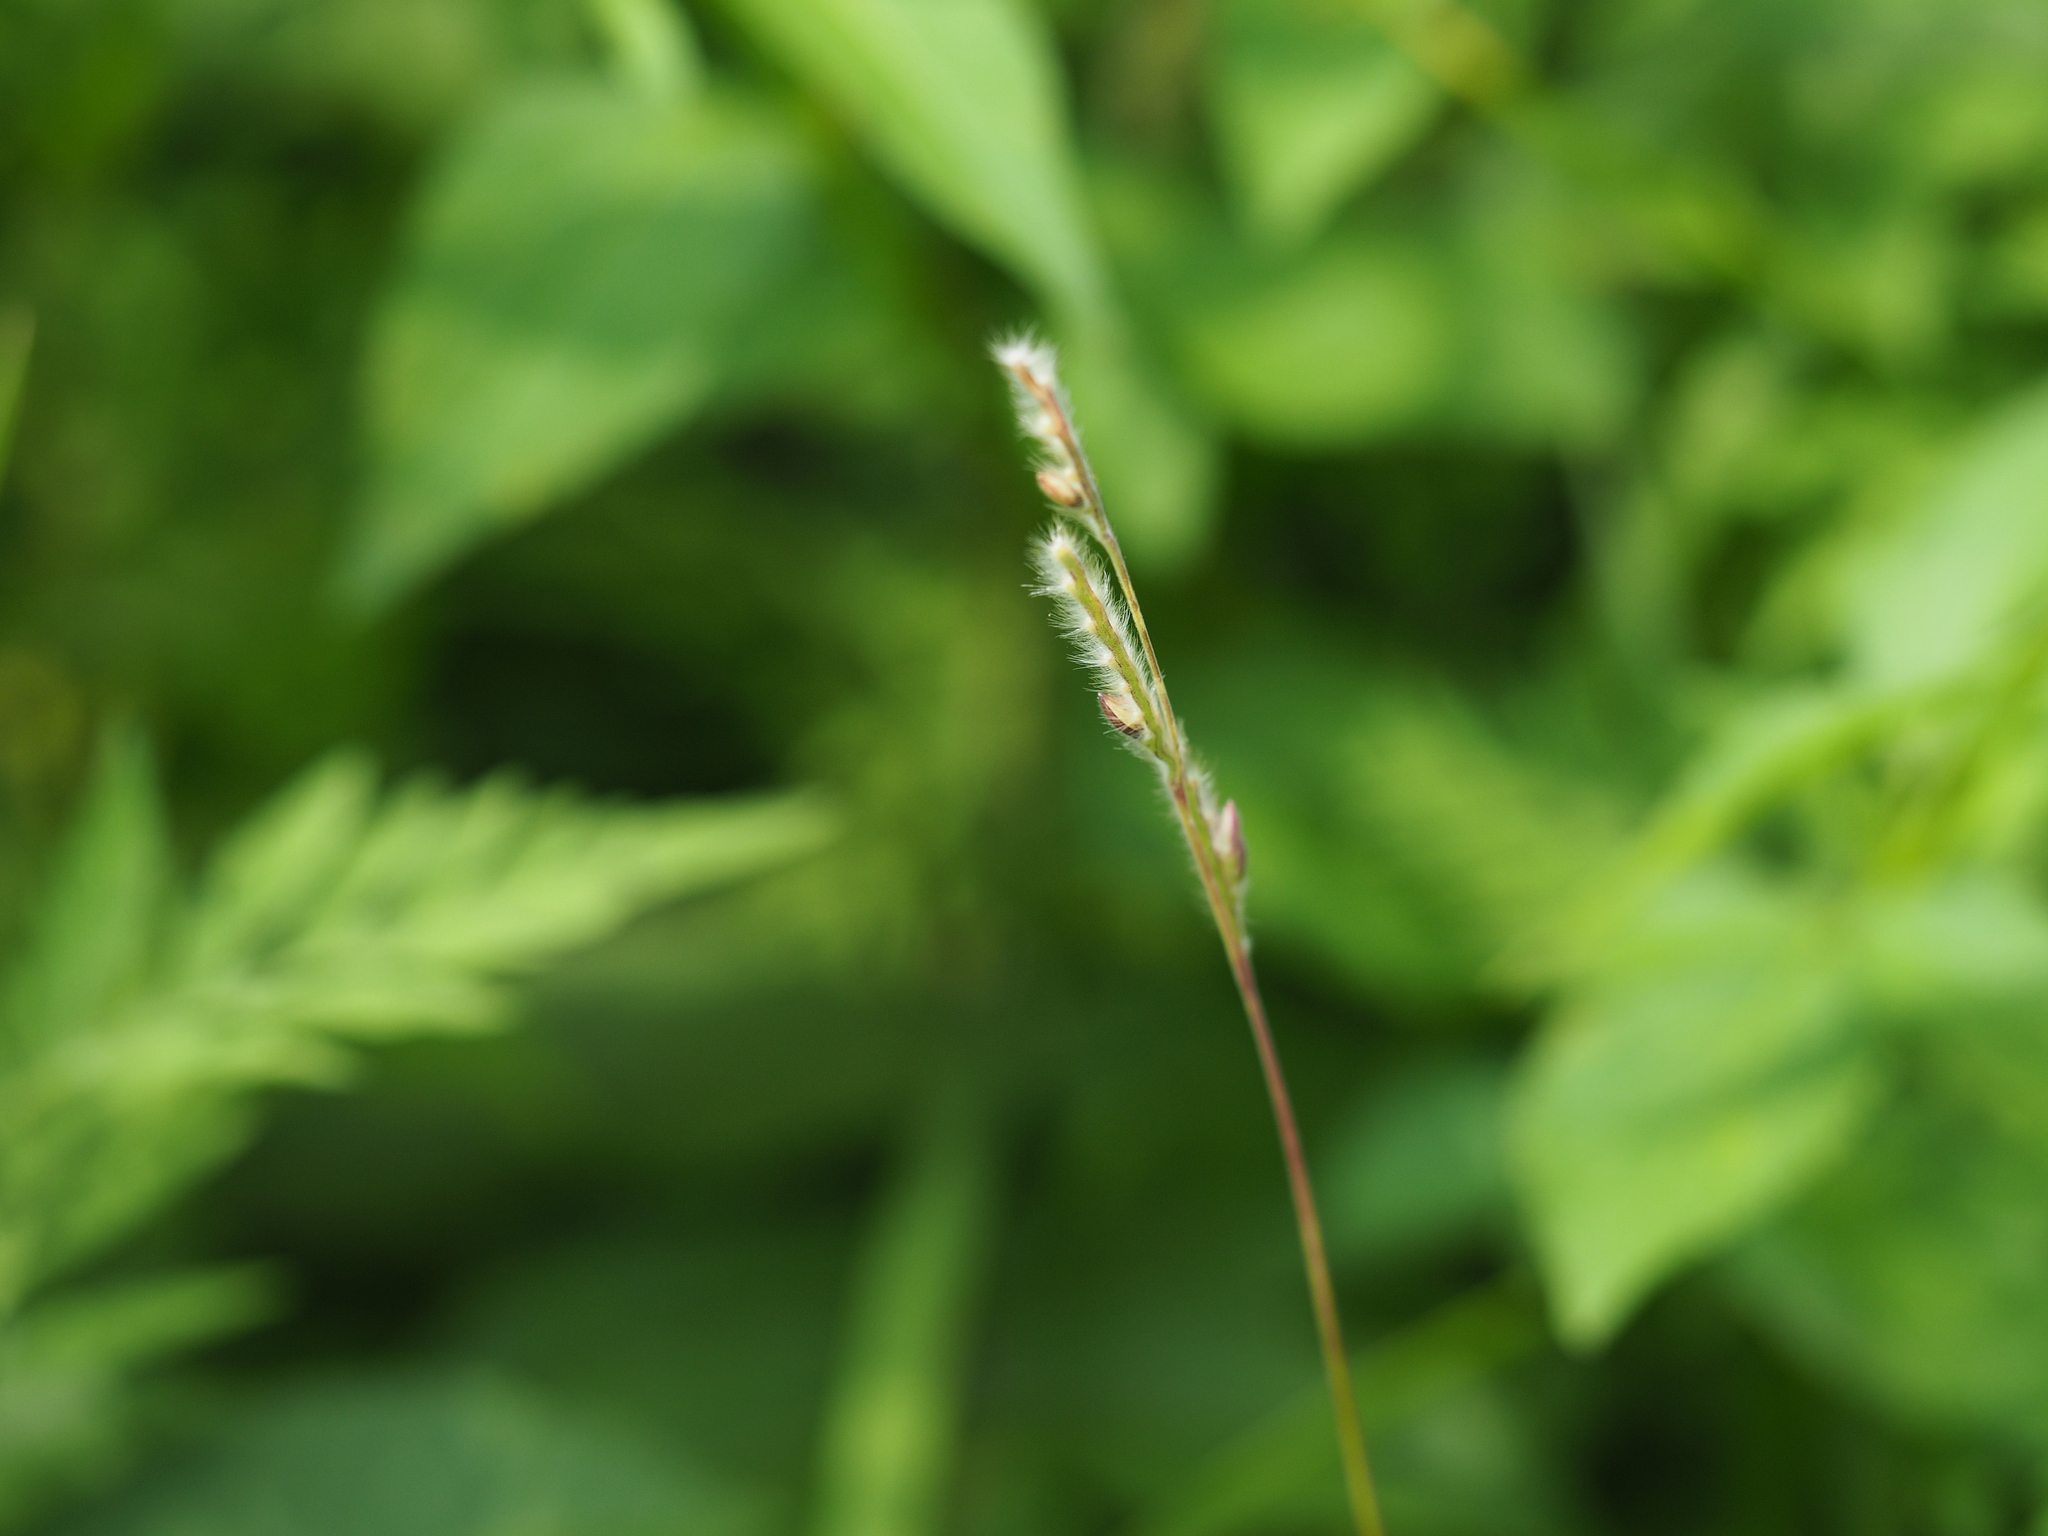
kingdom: Plantae
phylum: Tracheophyta
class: Liliopsida
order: Poales
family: Poaceae
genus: Eriochloa
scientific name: Eriochloa villosa
